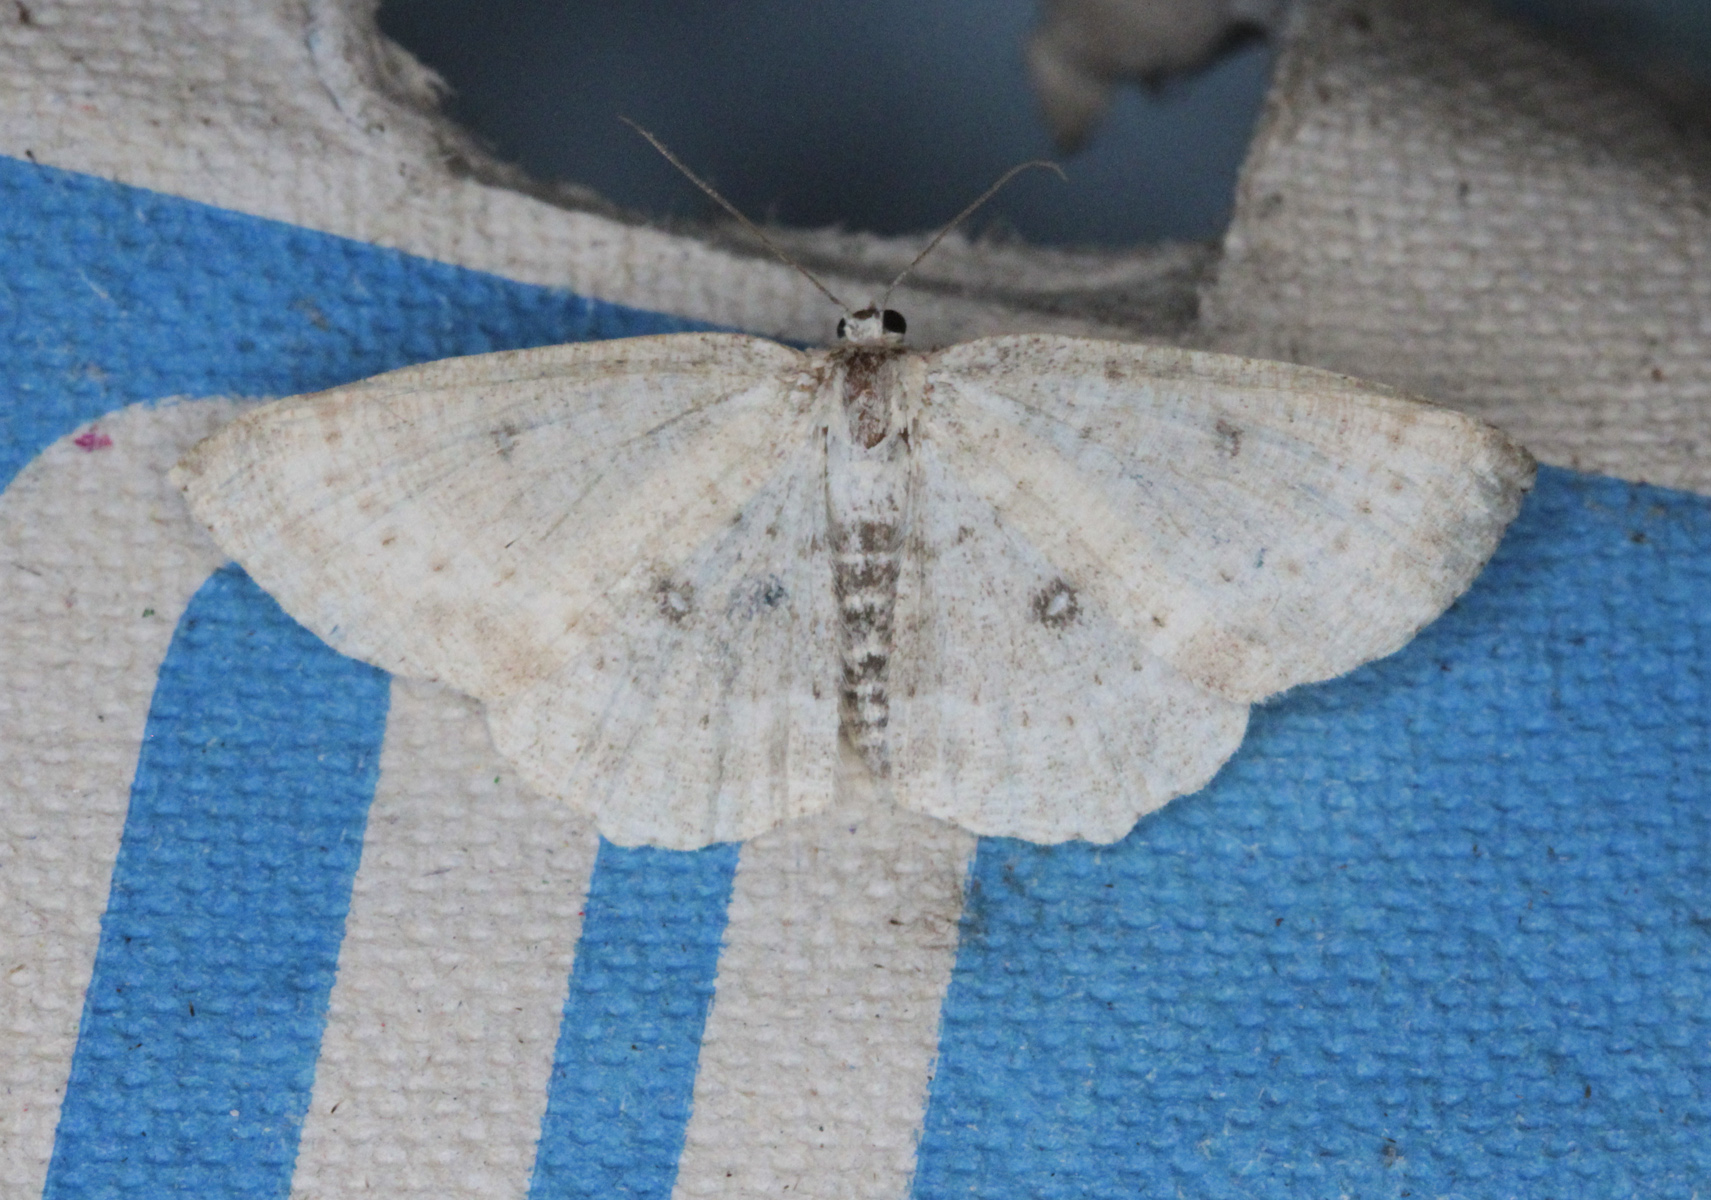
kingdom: Animalia
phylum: Arthropoda
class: Insecta
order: Lepidoptera
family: Geometridae
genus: Cyclophora
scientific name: Cyclophora albipunctata
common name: Birch mocha
